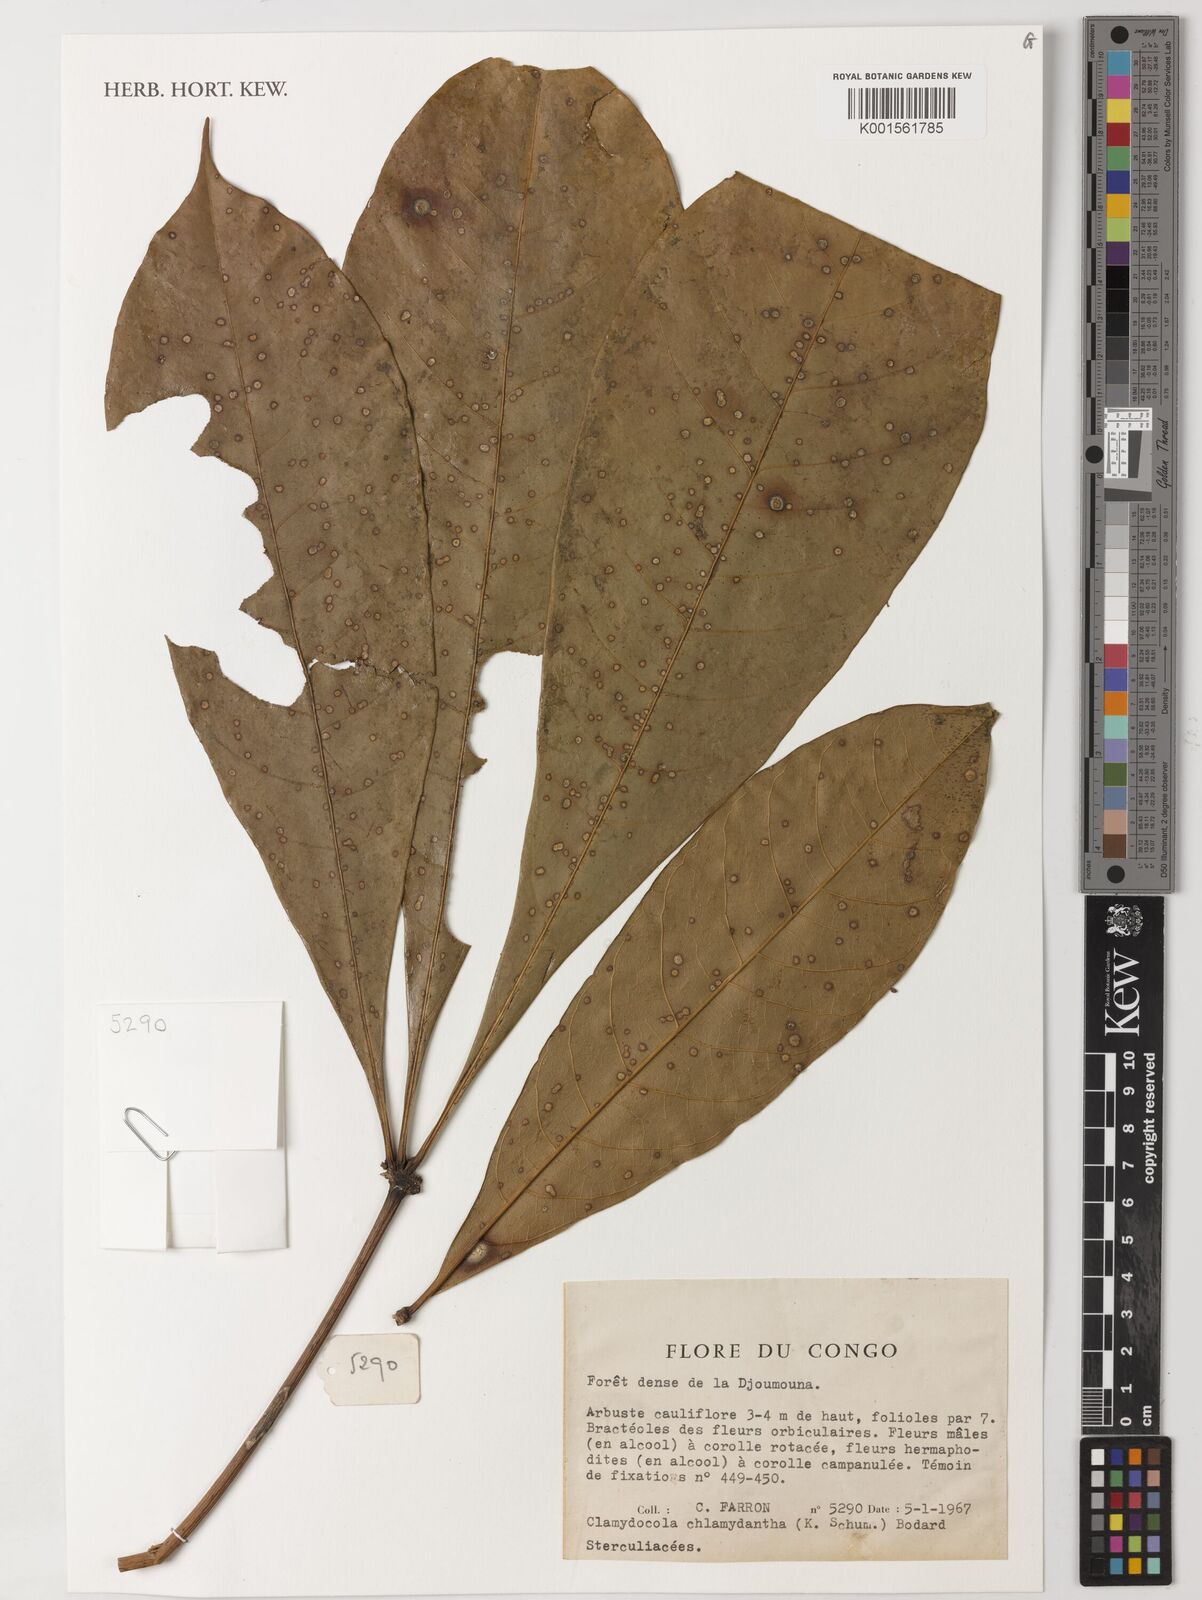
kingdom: Plantae
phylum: Tracheophyta
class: Magnoliopsida
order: Malvales
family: Malvaceae
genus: Cola
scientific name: Cola chlamydantha
